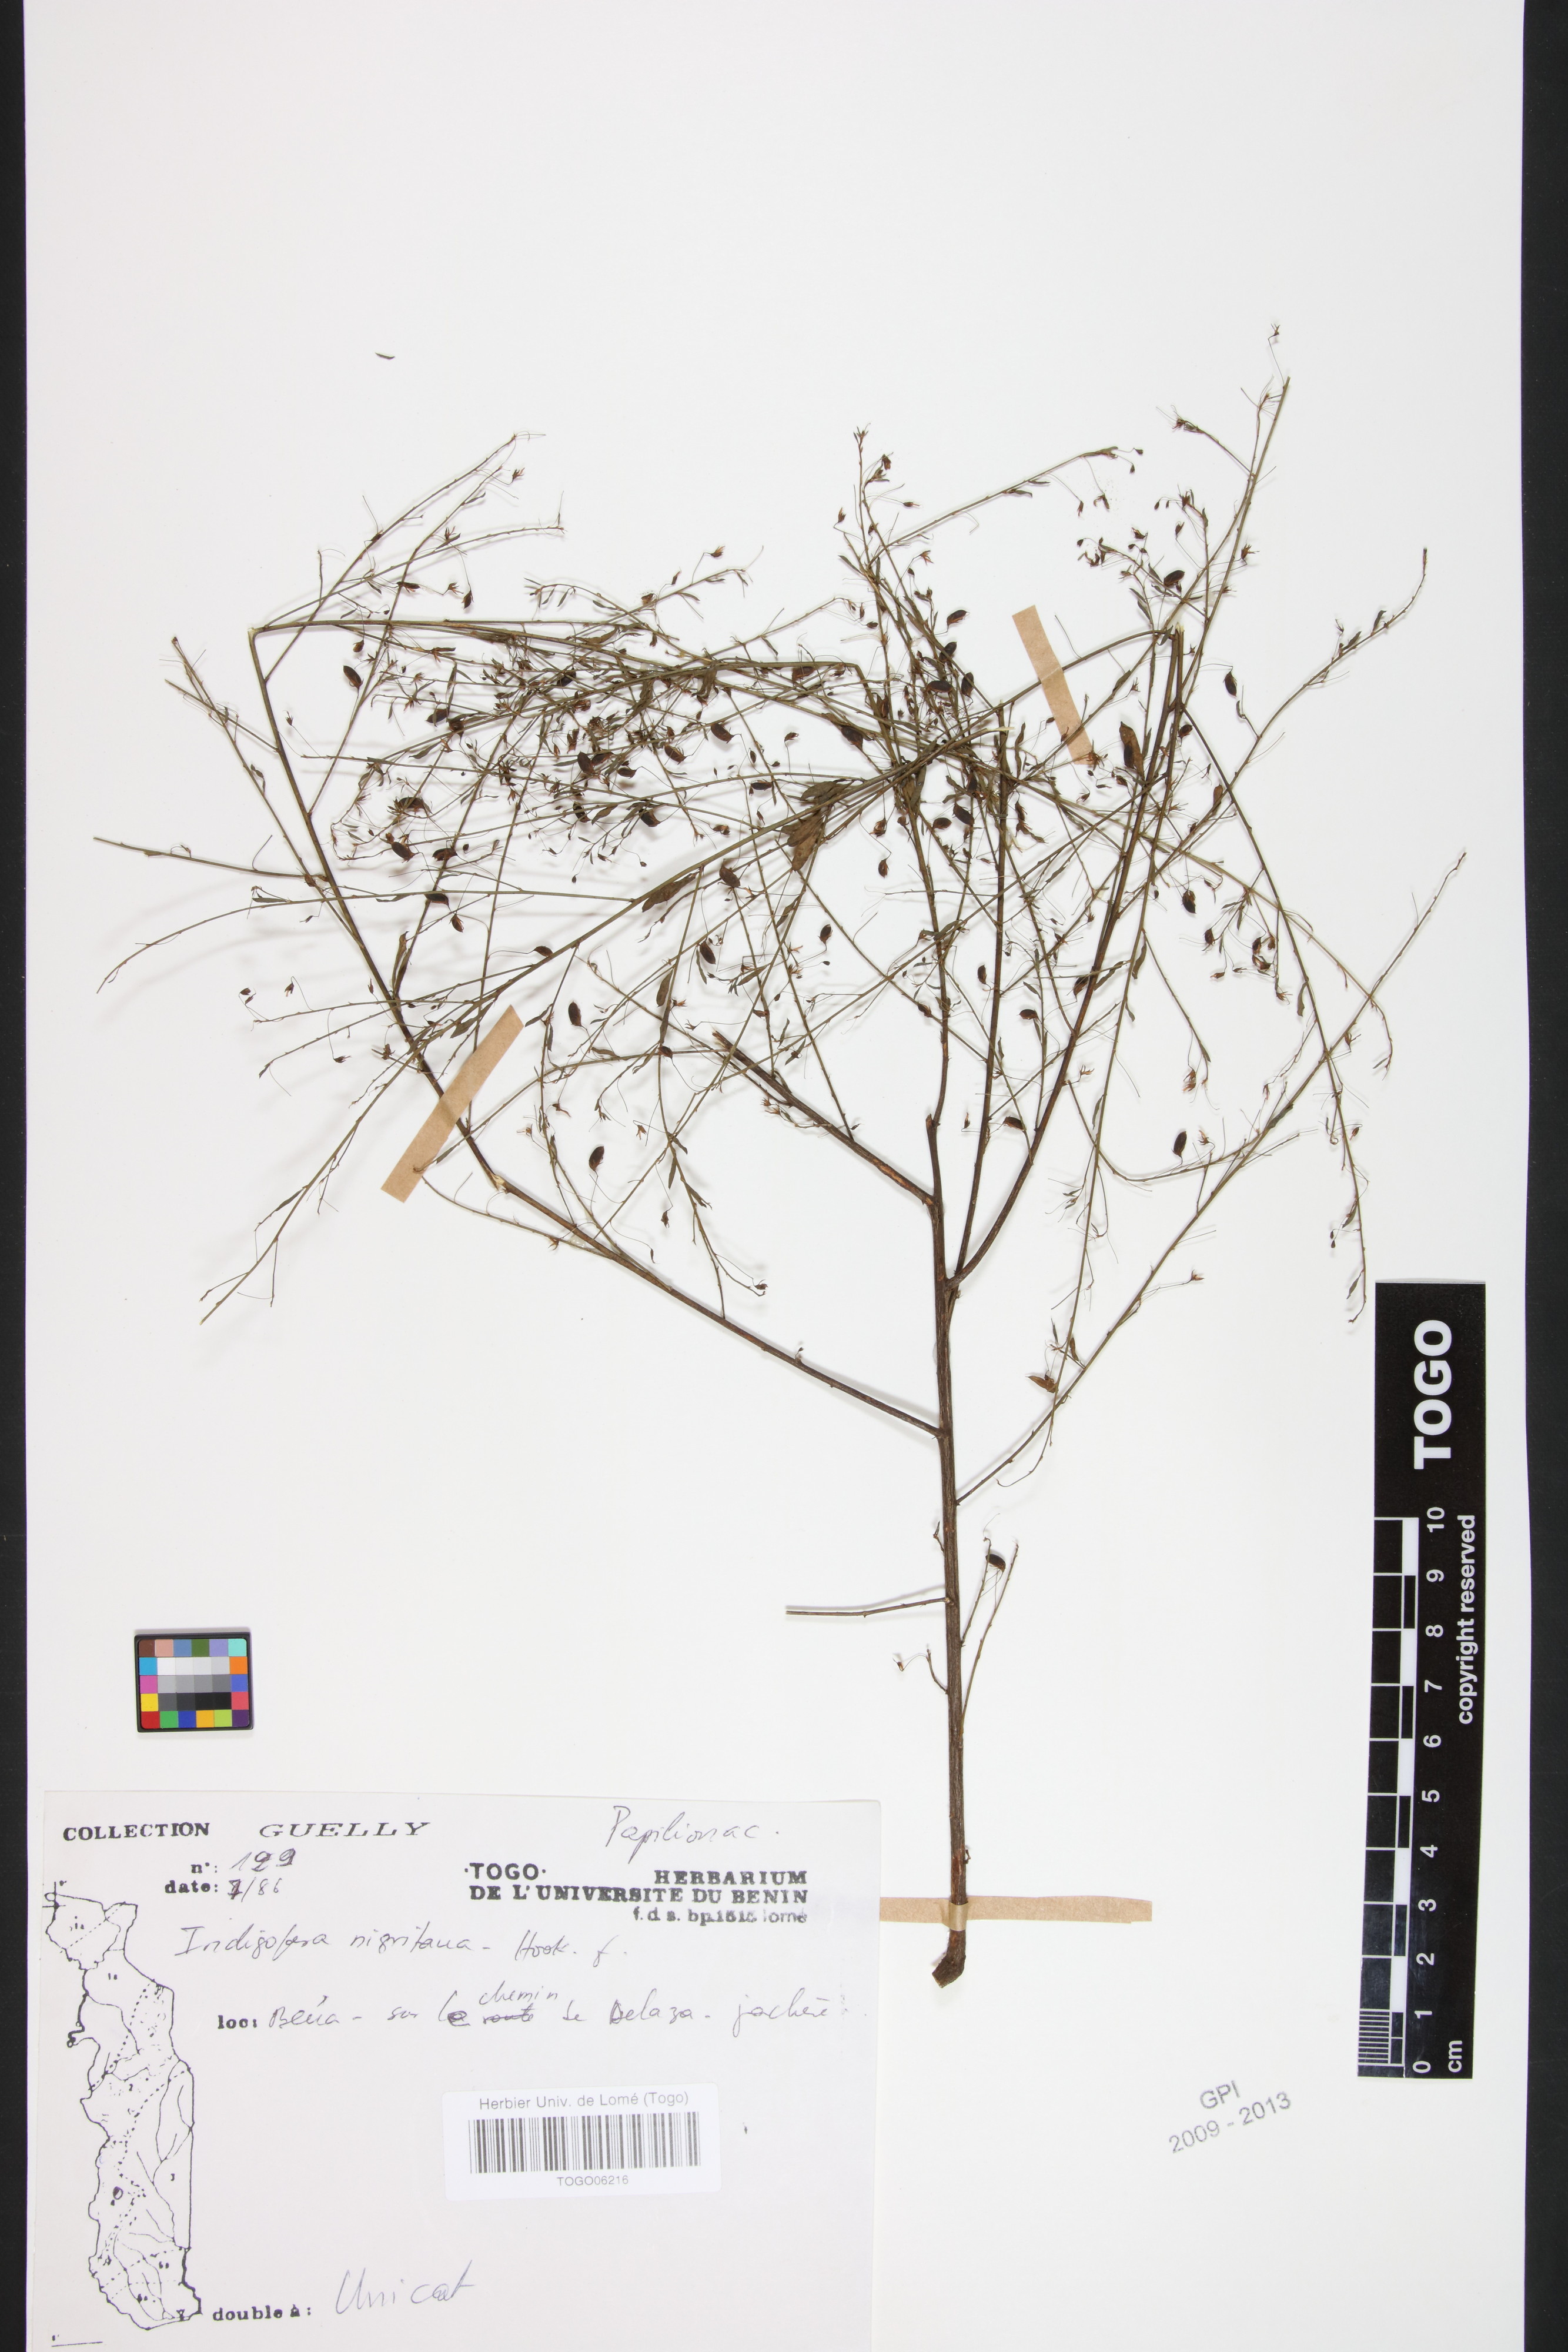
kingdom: Plantae
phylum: Tracheophyta
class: Magnoliopsida
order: Fabales
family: Fabaceae
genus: Indigofera
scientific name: Indigofera nigritana
